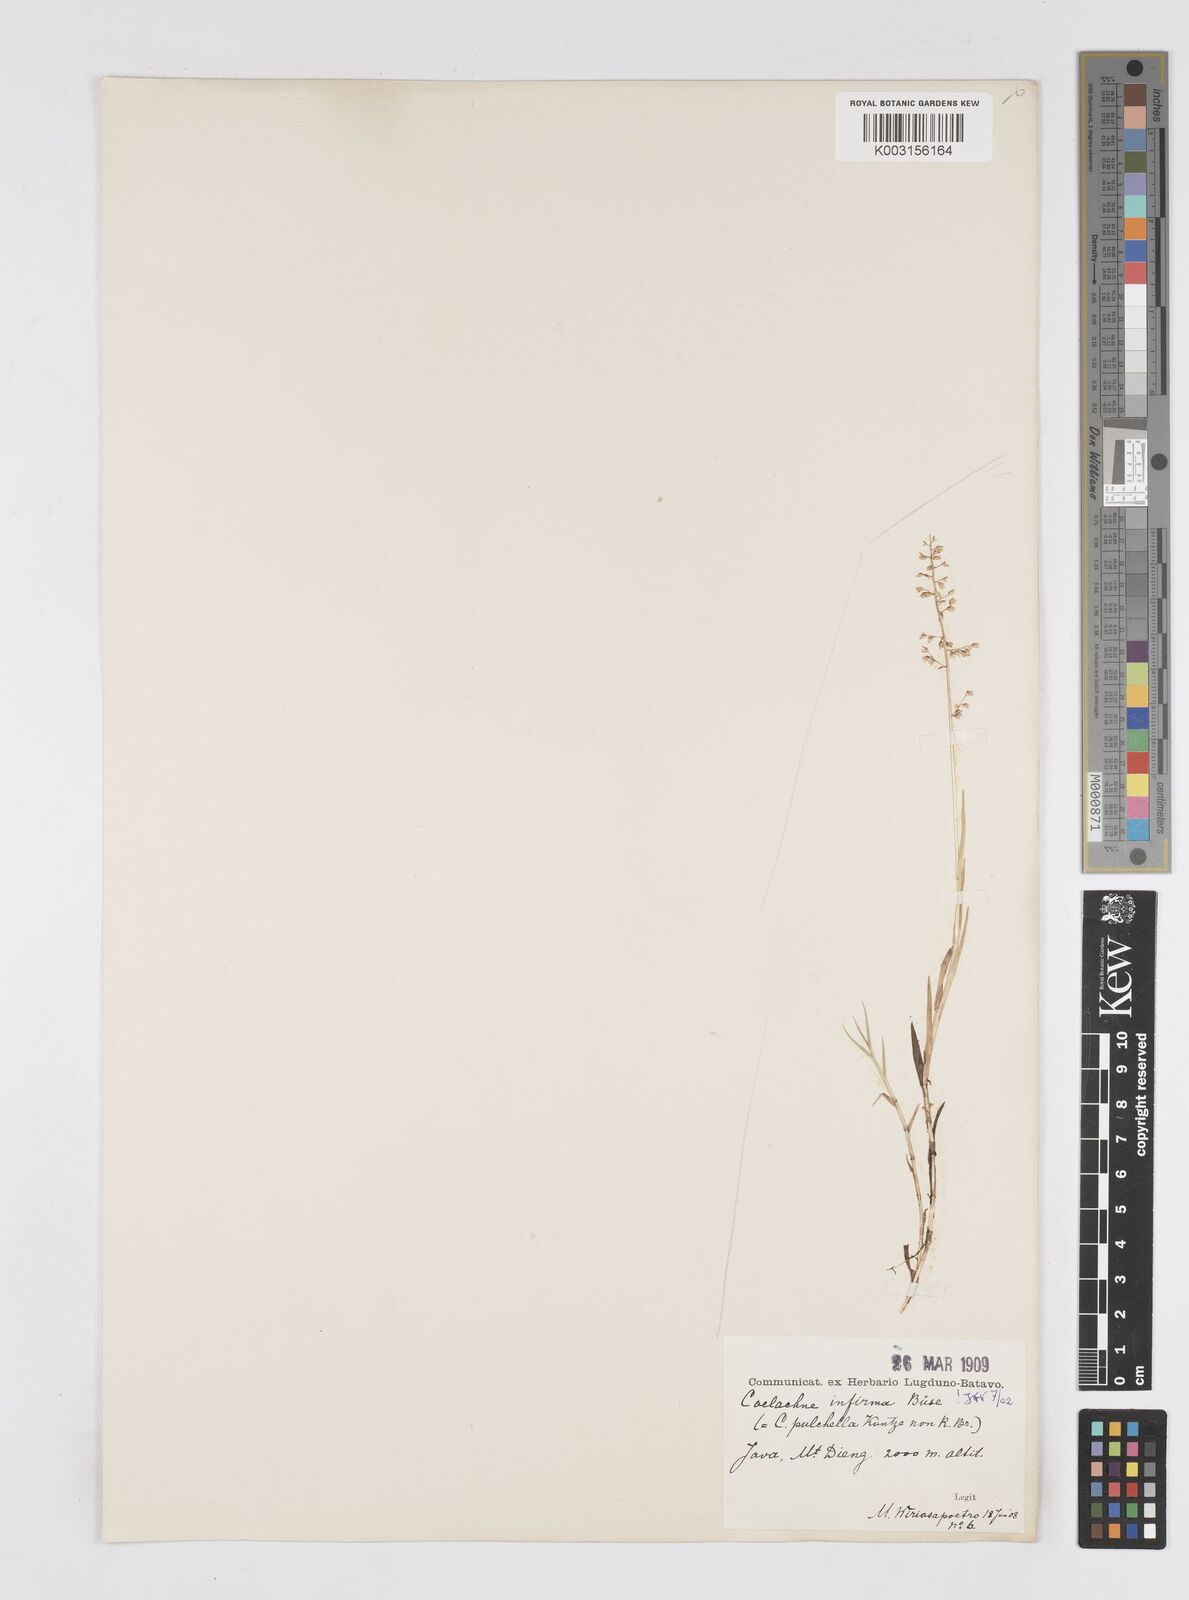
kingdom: Plantae
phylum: Tracheophyta
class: Liliopsida
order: Poales
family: Poaceae
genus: Coelachne
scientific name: Coelachne infirma
